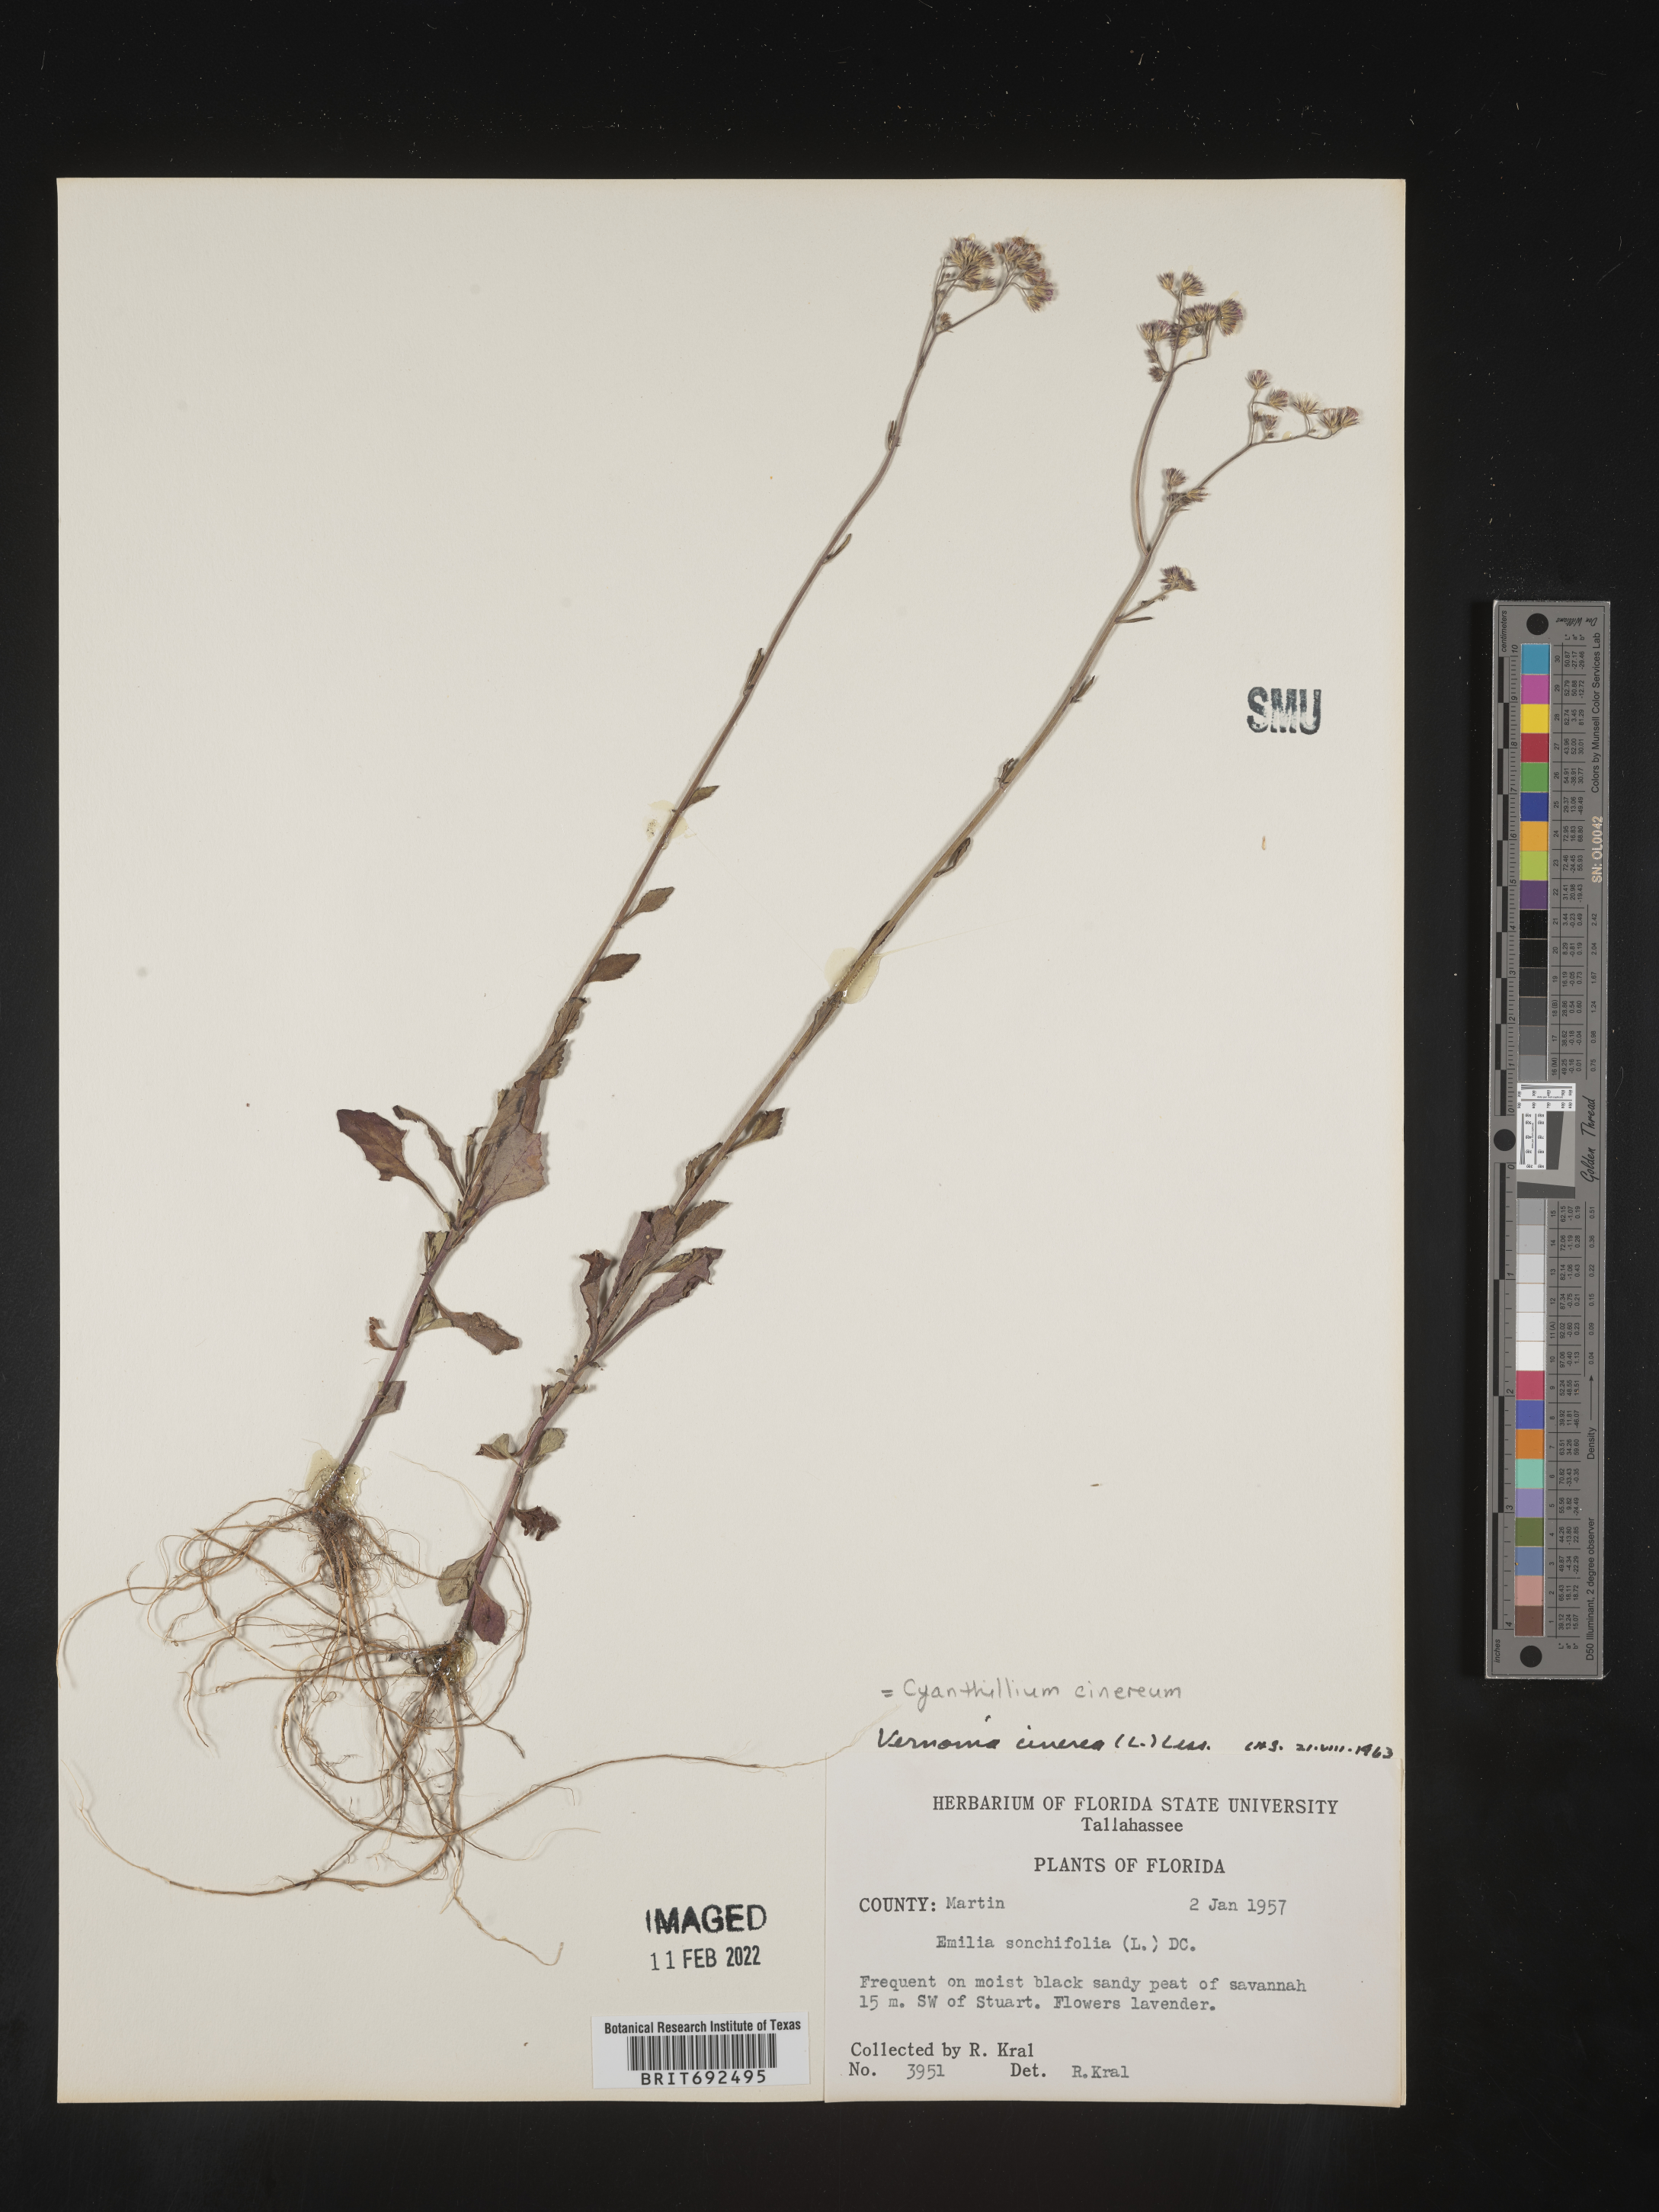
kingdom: Plantae
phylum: Tracheophyta
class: Magnoliopsida
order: Asterales
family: Asteraceae
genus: Cyanthillium
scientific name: Cyanthillium cinereum
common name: Little ironweed
